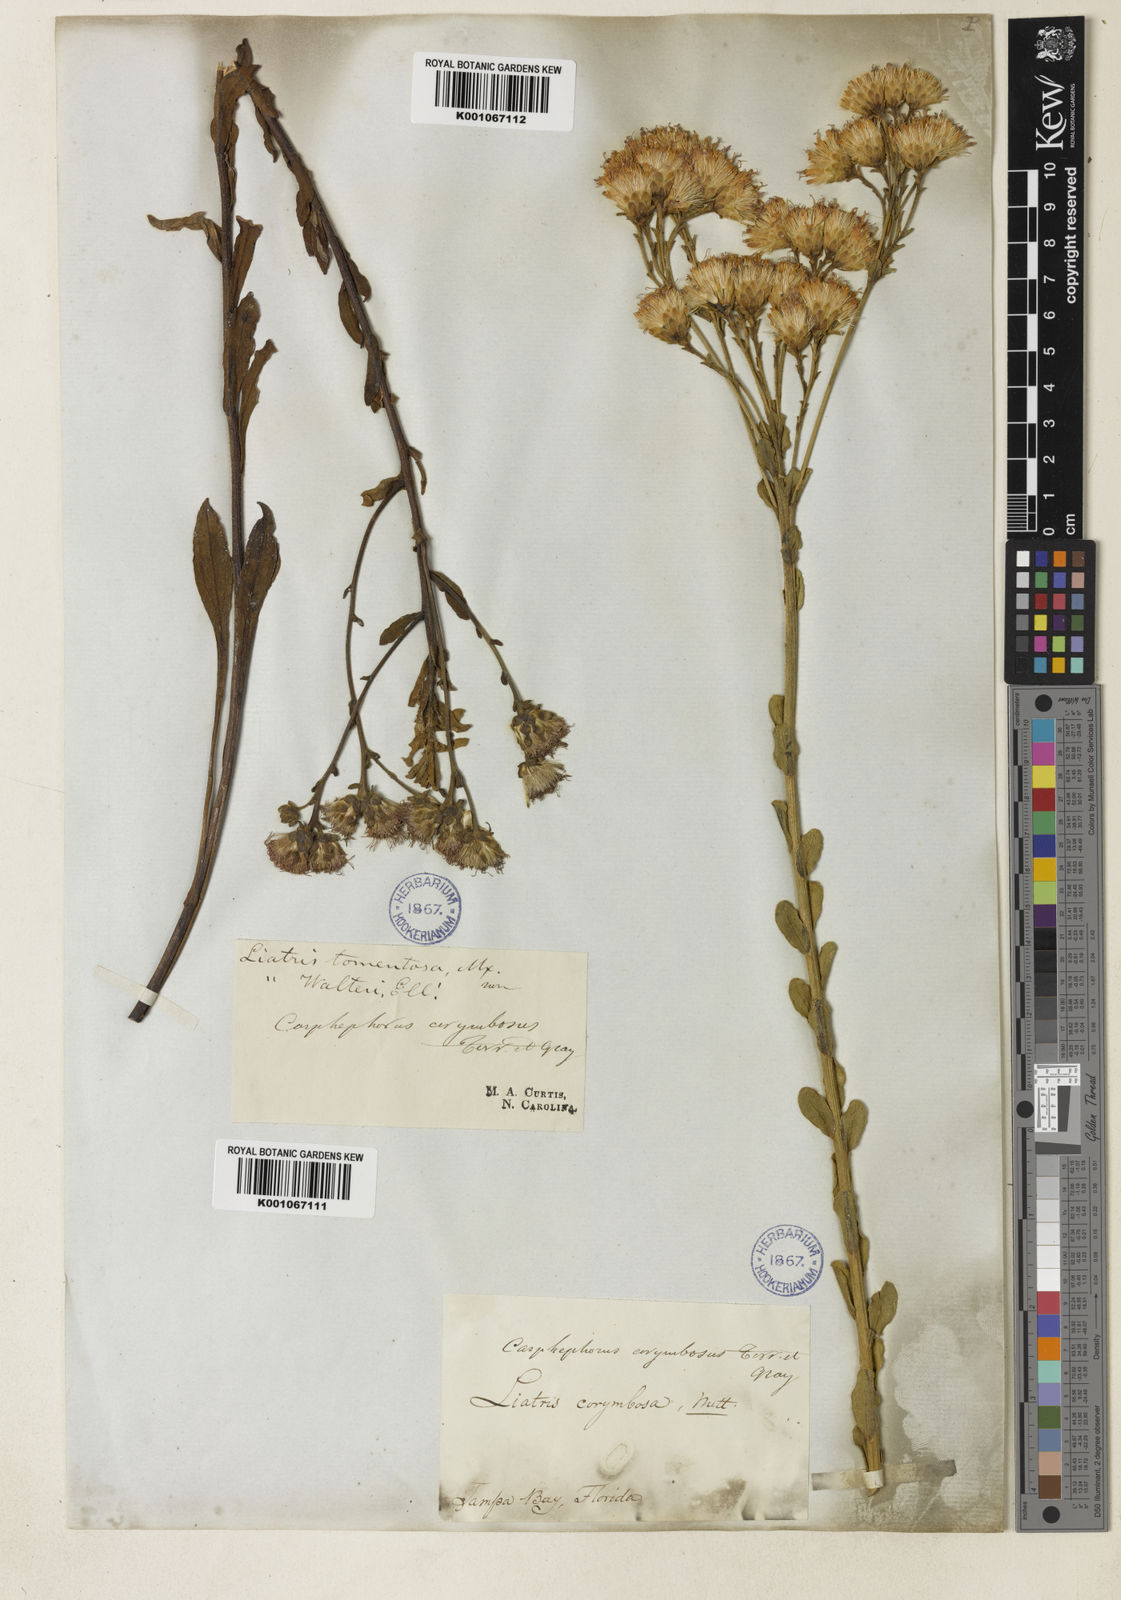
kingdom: Plantae
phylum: Tracheophyta
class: Magnoliopsida
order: Asterales
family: Asteraceae
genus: Carphephorus
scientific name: Carphephorus corymbosus
